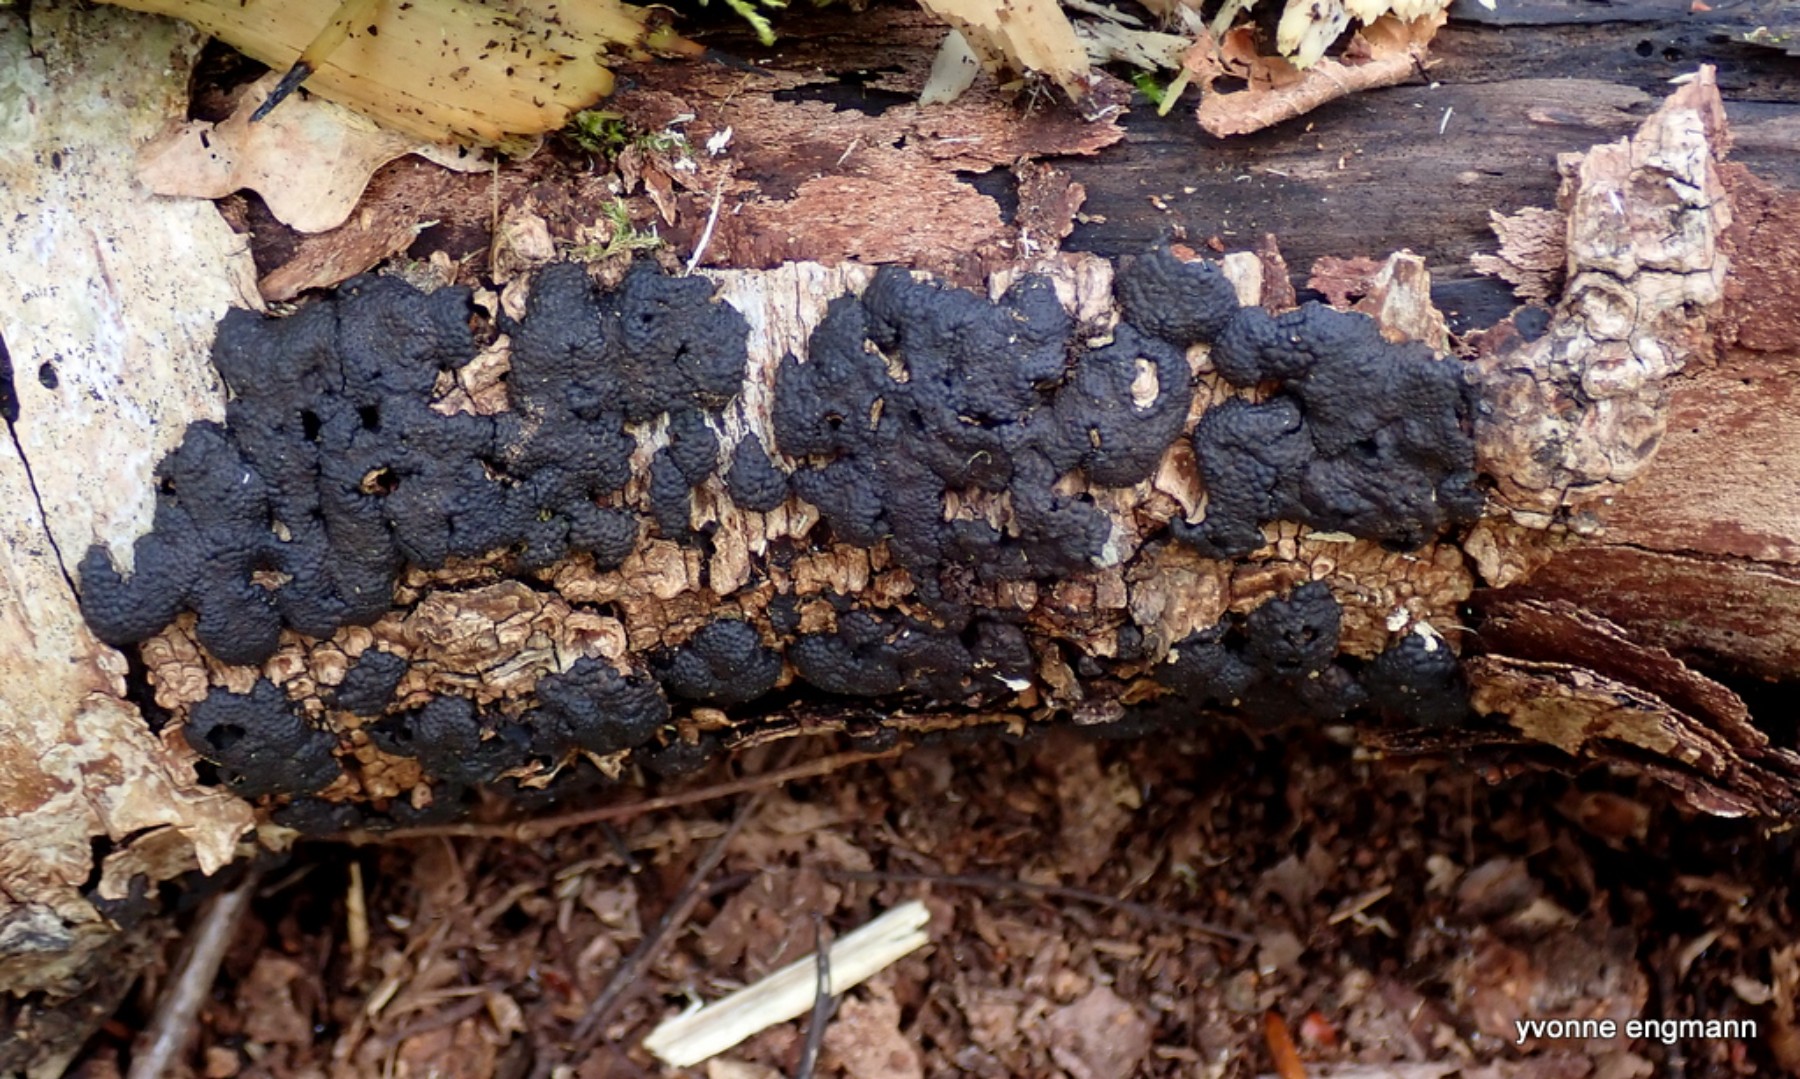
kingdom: Fungi
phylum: Ascomycota
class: Sordariomycetes
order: Xylariales
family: Hypoxylaceae
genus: Jackrogersella
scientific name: Jackrogersella multiformis
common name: foranderlig kulbær
